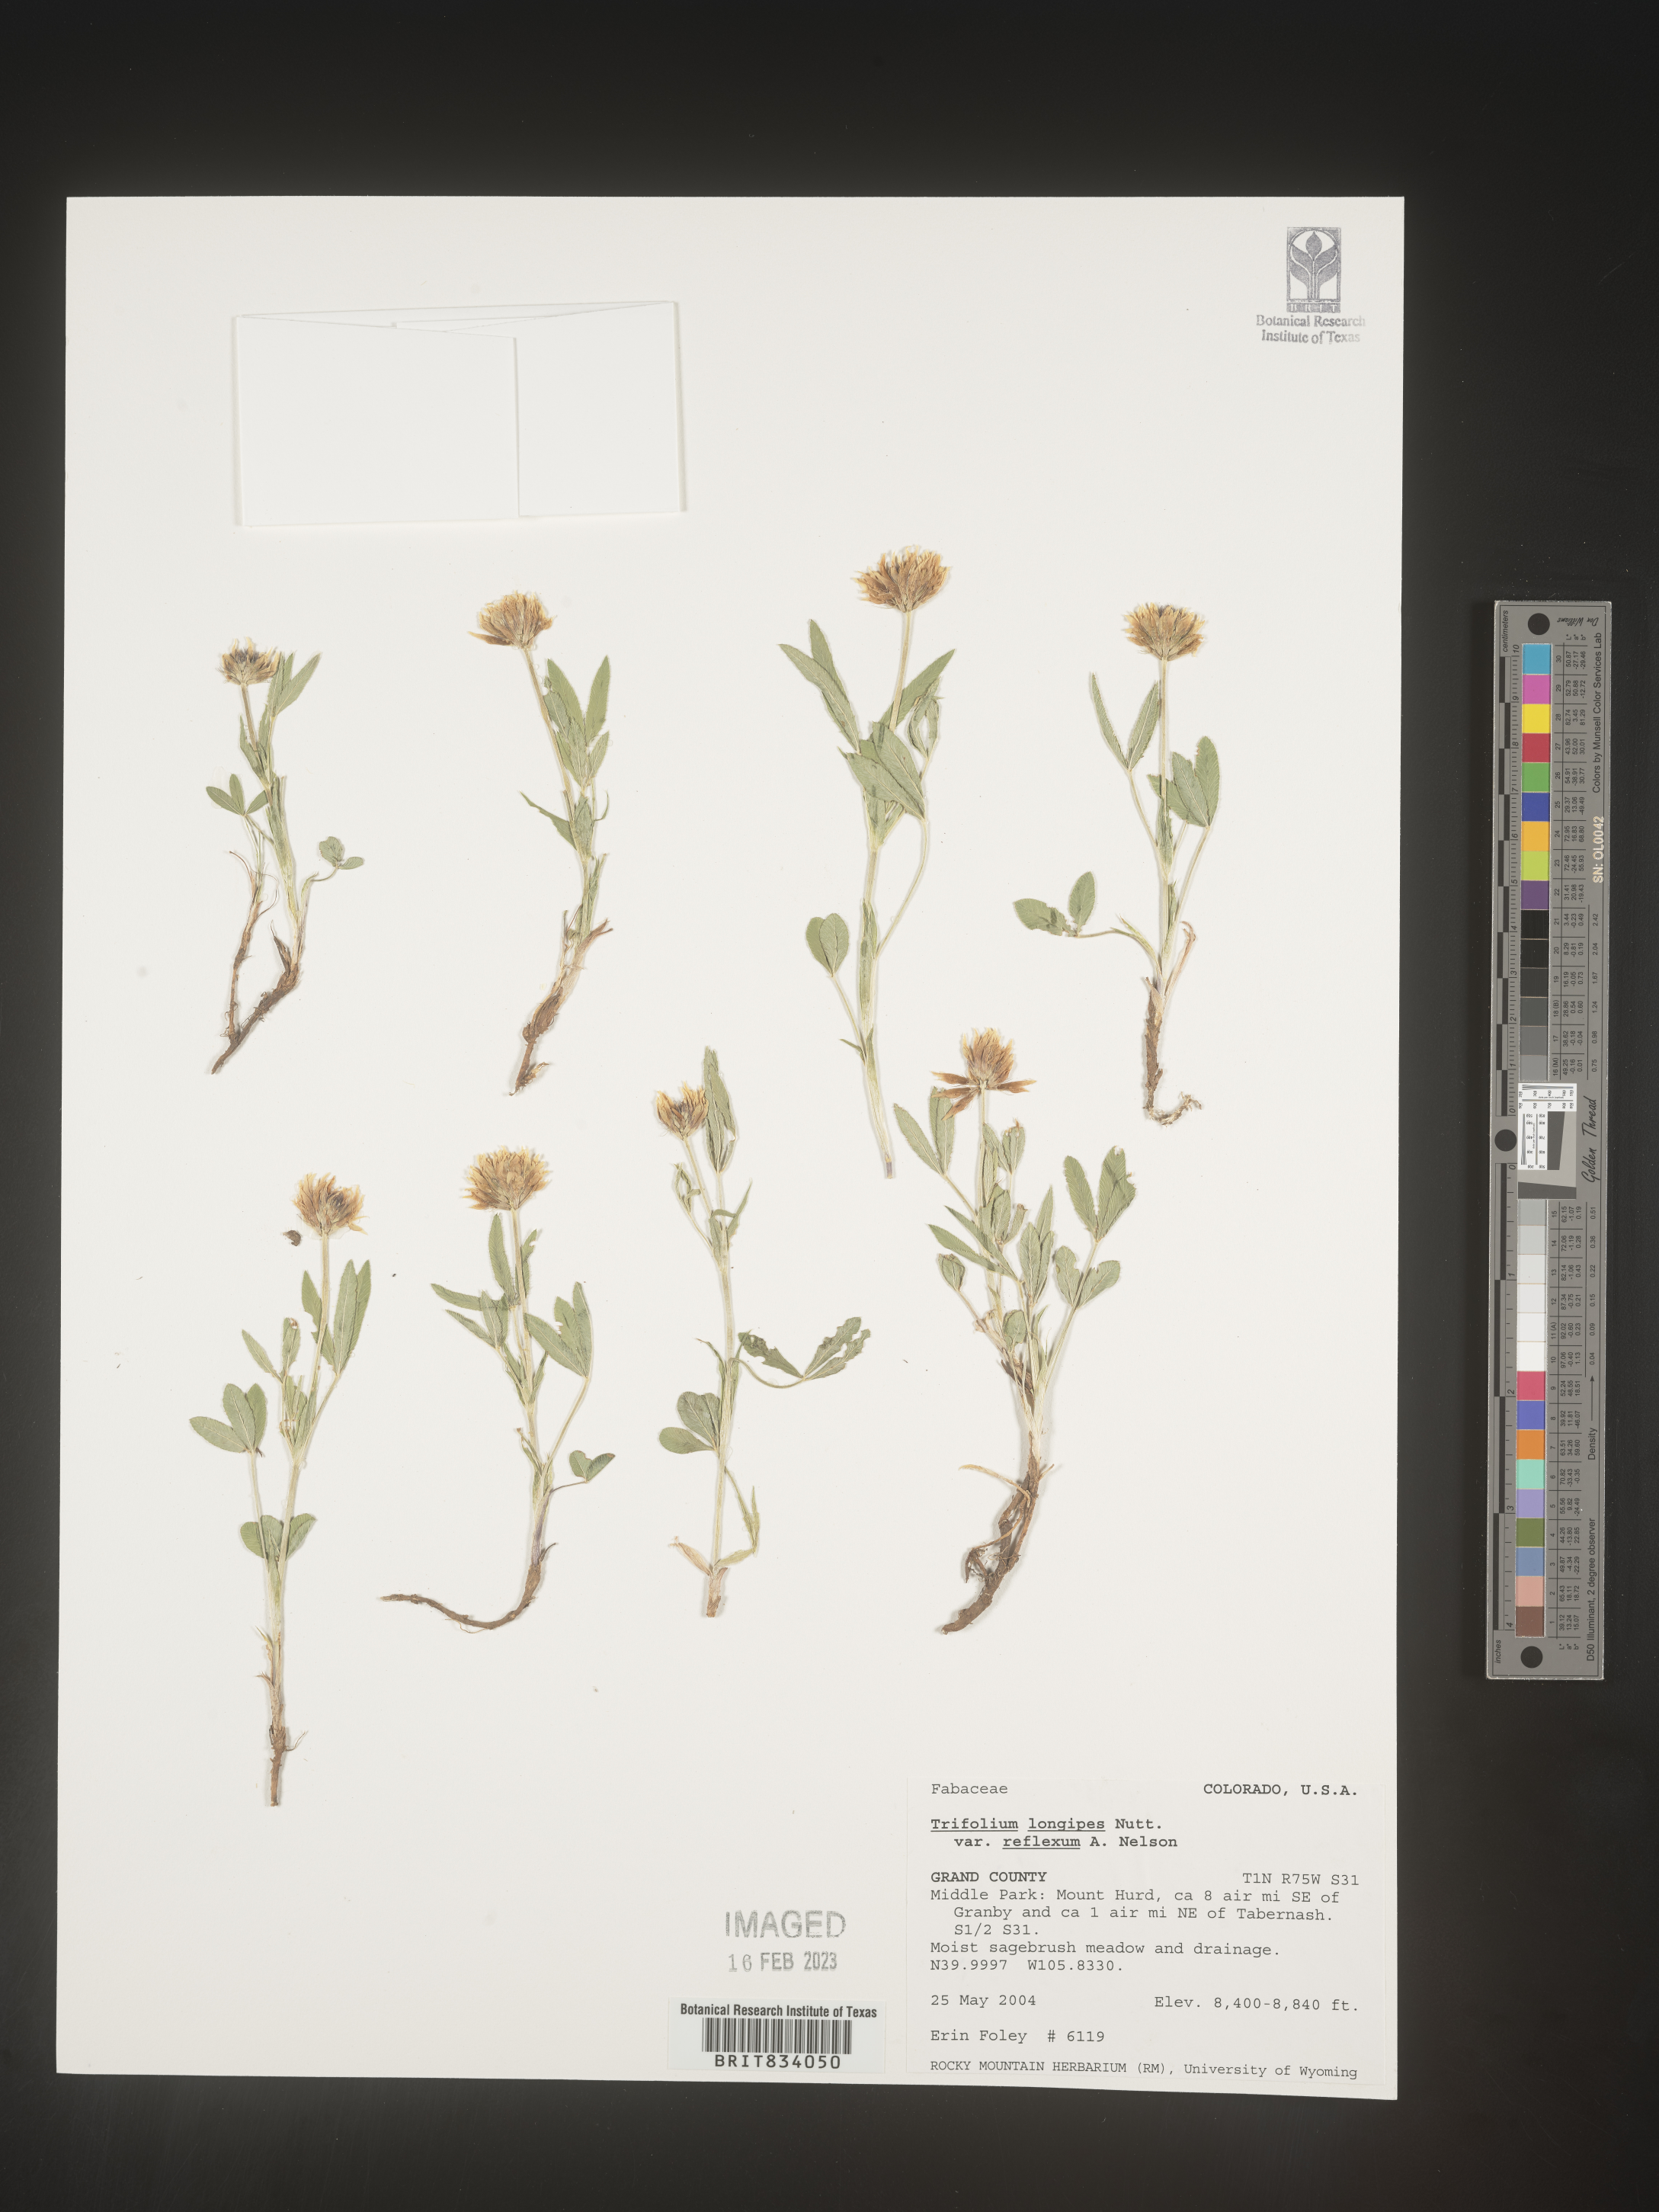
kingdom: Plantae
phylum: Tracheophyta
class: Magnoliopsida
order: Fabales
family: Fabaceae
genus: Trifolium
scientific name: Trifolium
